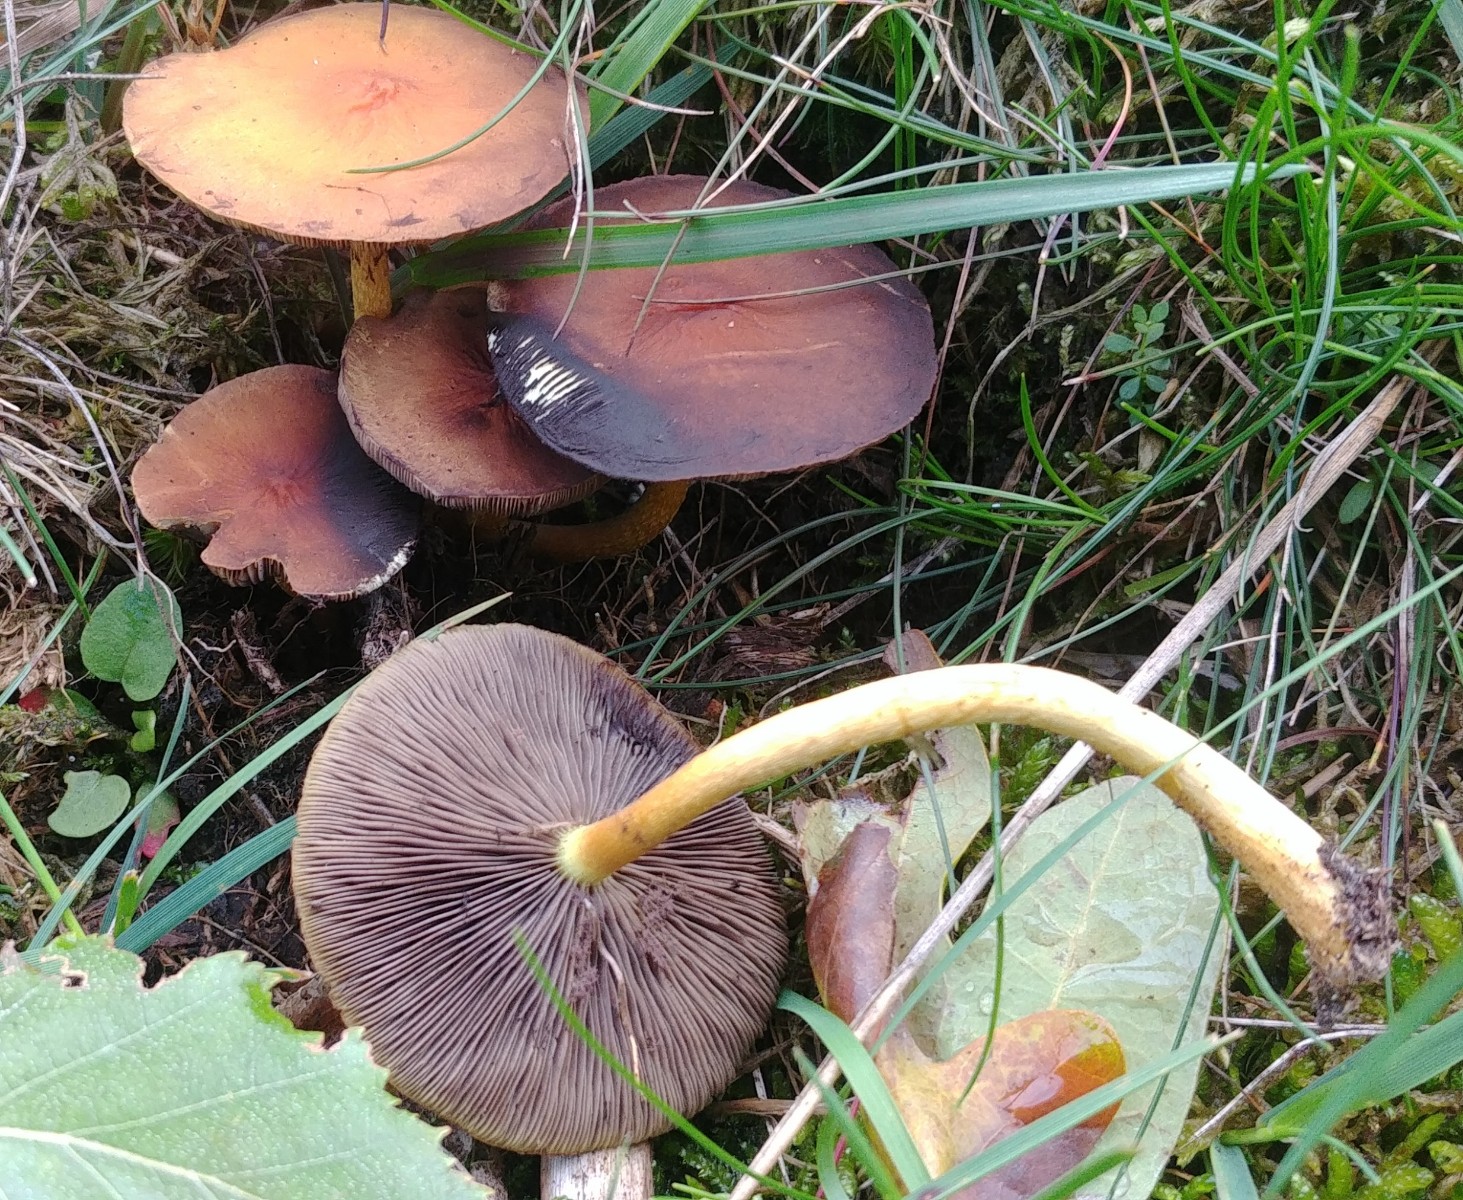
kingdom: Fungi
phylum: Basidiomycota
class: Agaricomycetes
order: Agaricales
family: Strophariaceae
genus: Hypholoma
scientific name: Hypholoma
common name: svovlhat
